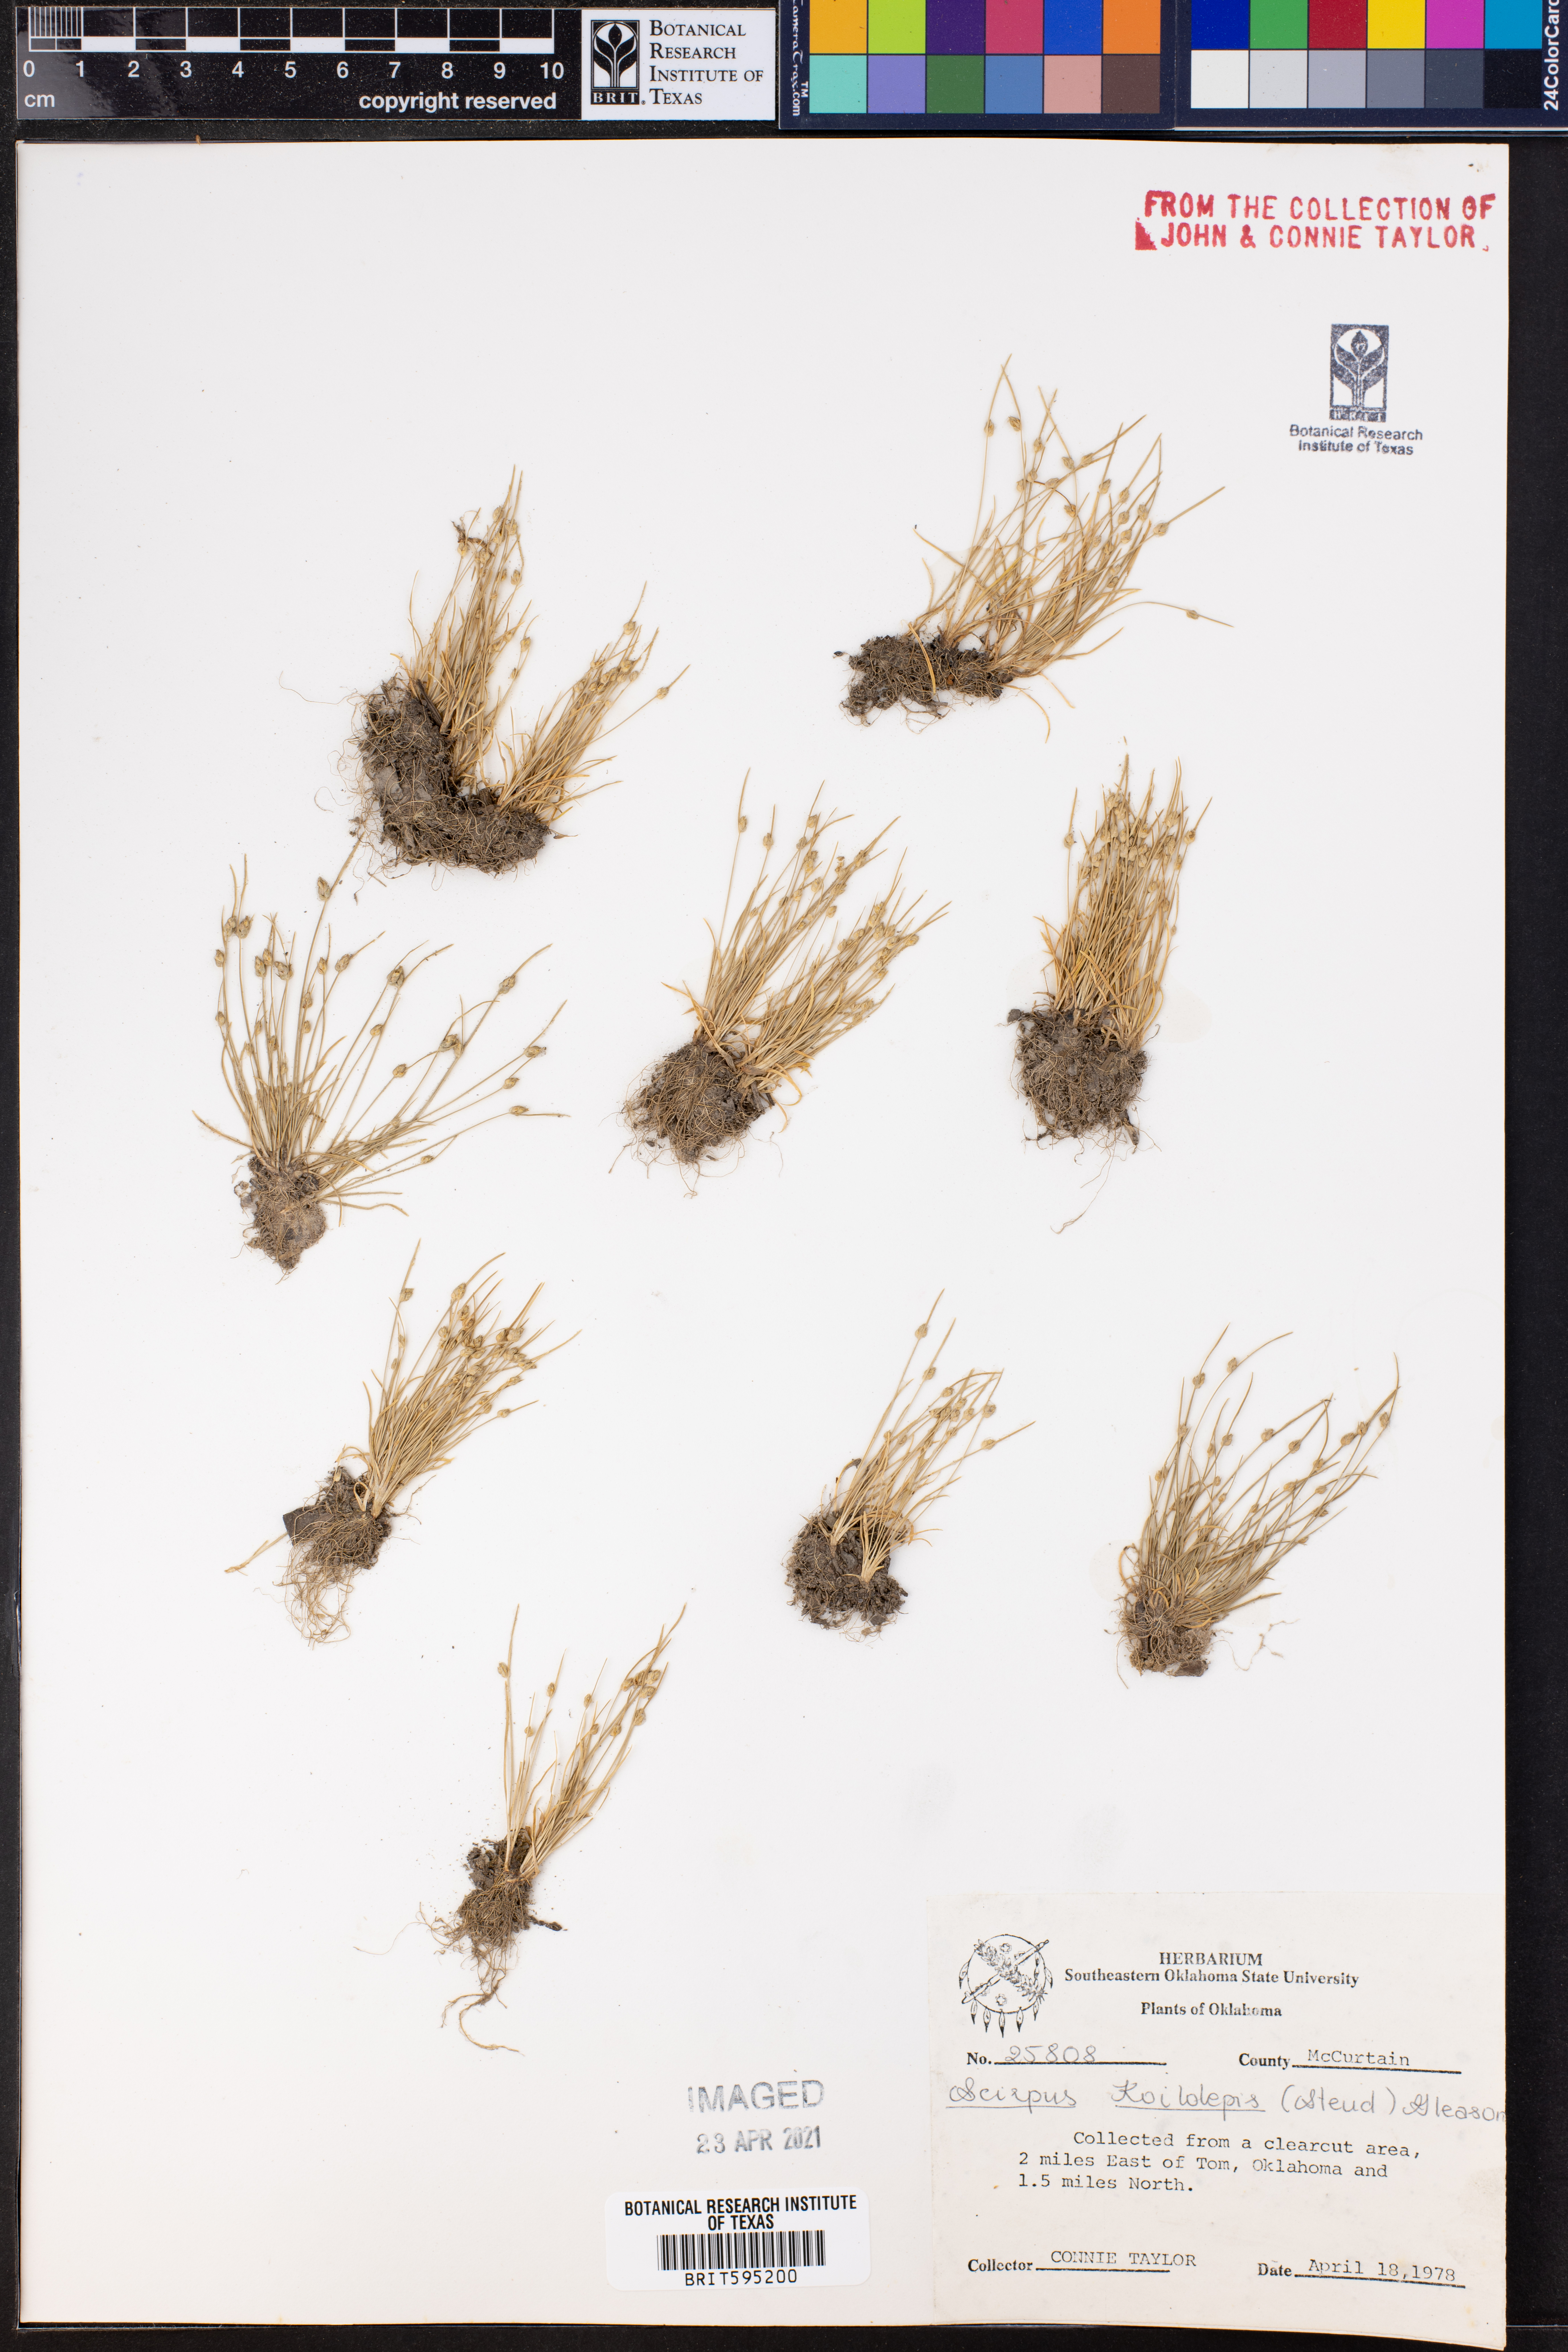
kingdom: Plantae
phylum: Tracheophyta
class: Liliopsida
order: Poales
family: Cyperaceae
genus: Isolepis
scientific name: Isolepis carinata
